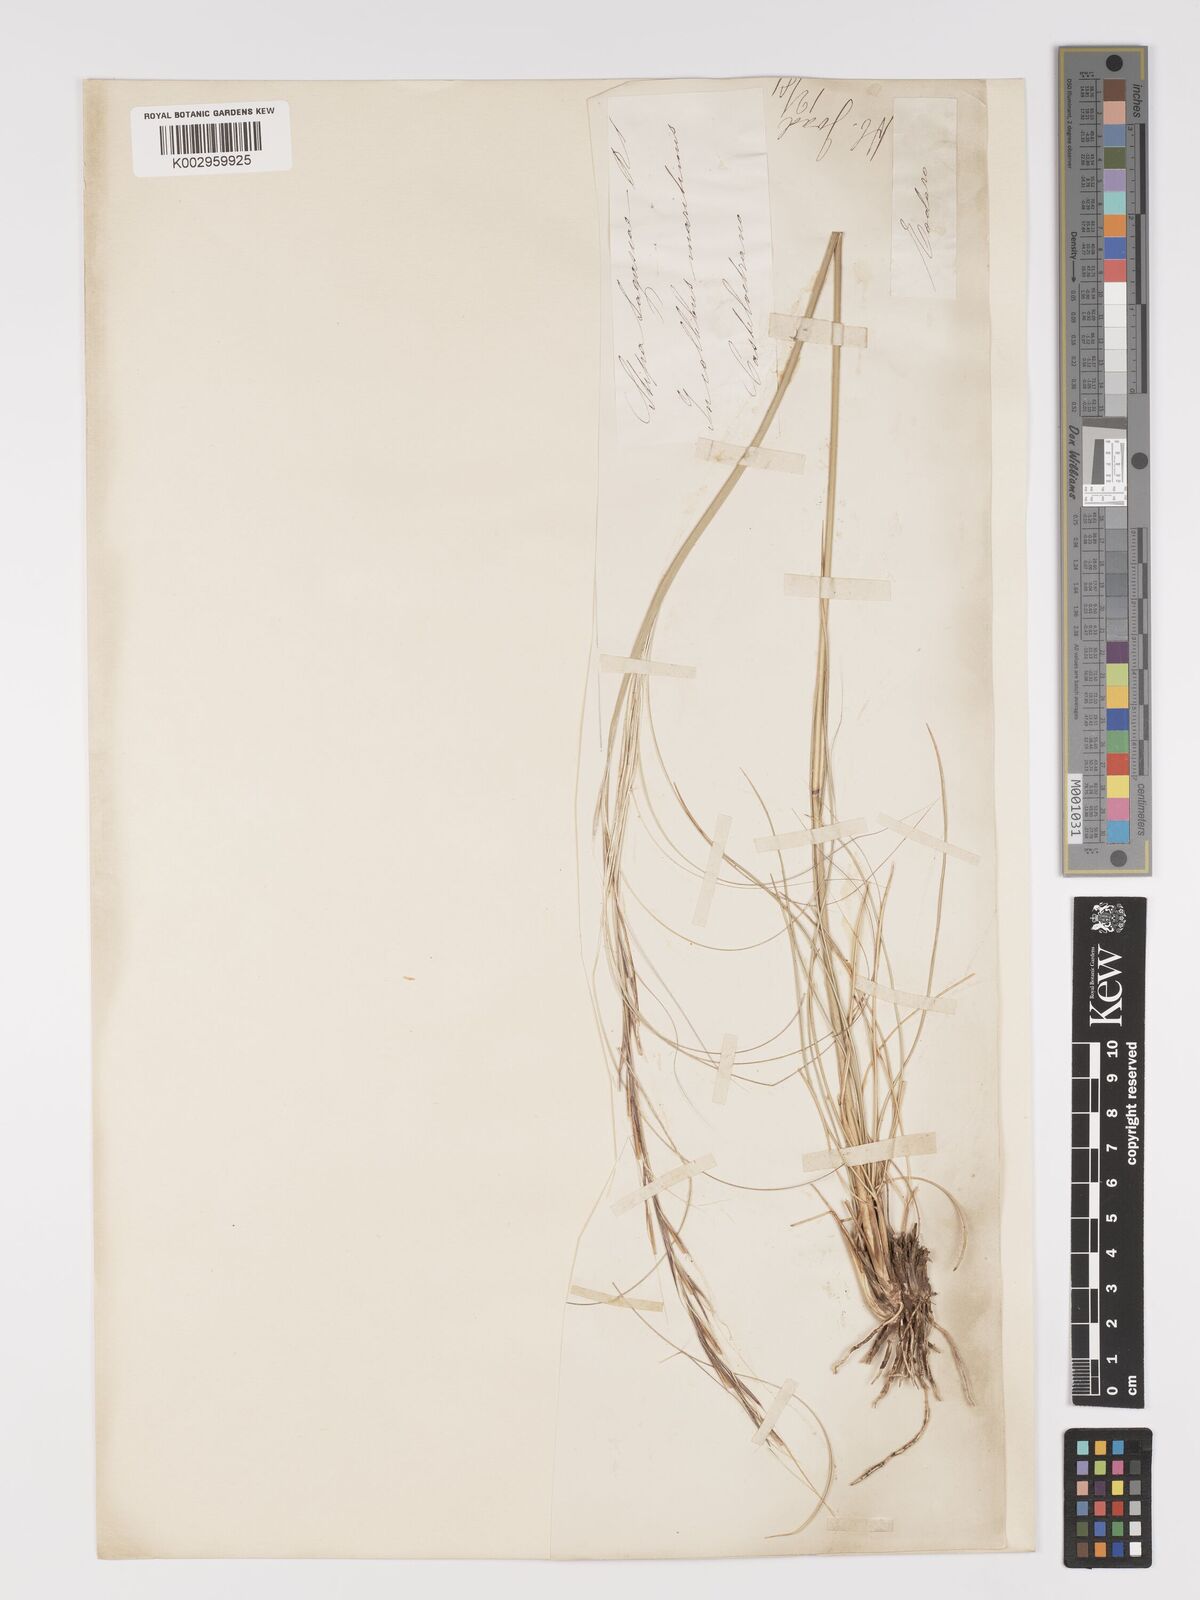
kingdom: Plantae
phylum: Tracheophyta
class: Liliopsida
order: Poales
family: Poaceae
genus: Stipa
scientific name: Stipa
